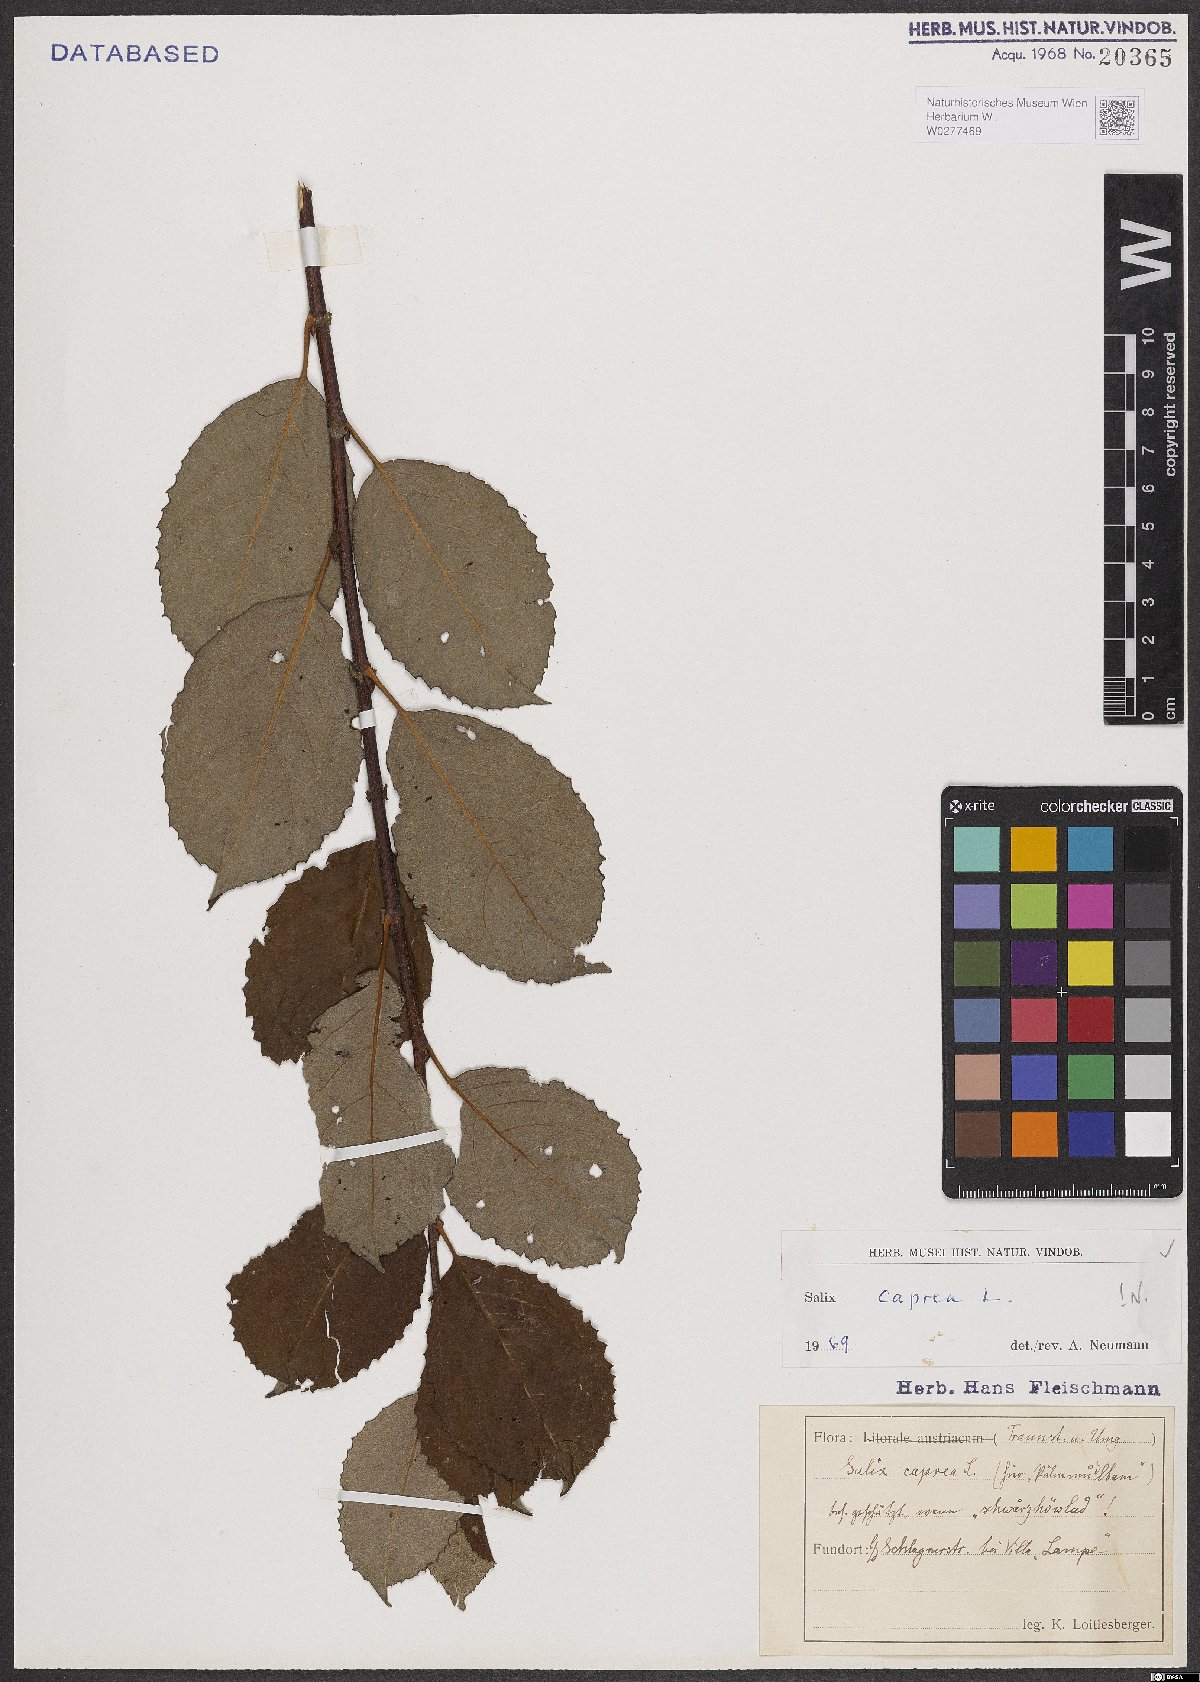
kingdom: Plantae
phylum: Tracheophyta
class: Magnoliopsida
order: Malpighiales
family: Salicaceae
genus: Salix
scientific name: Salix caprea
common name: Goat willow
